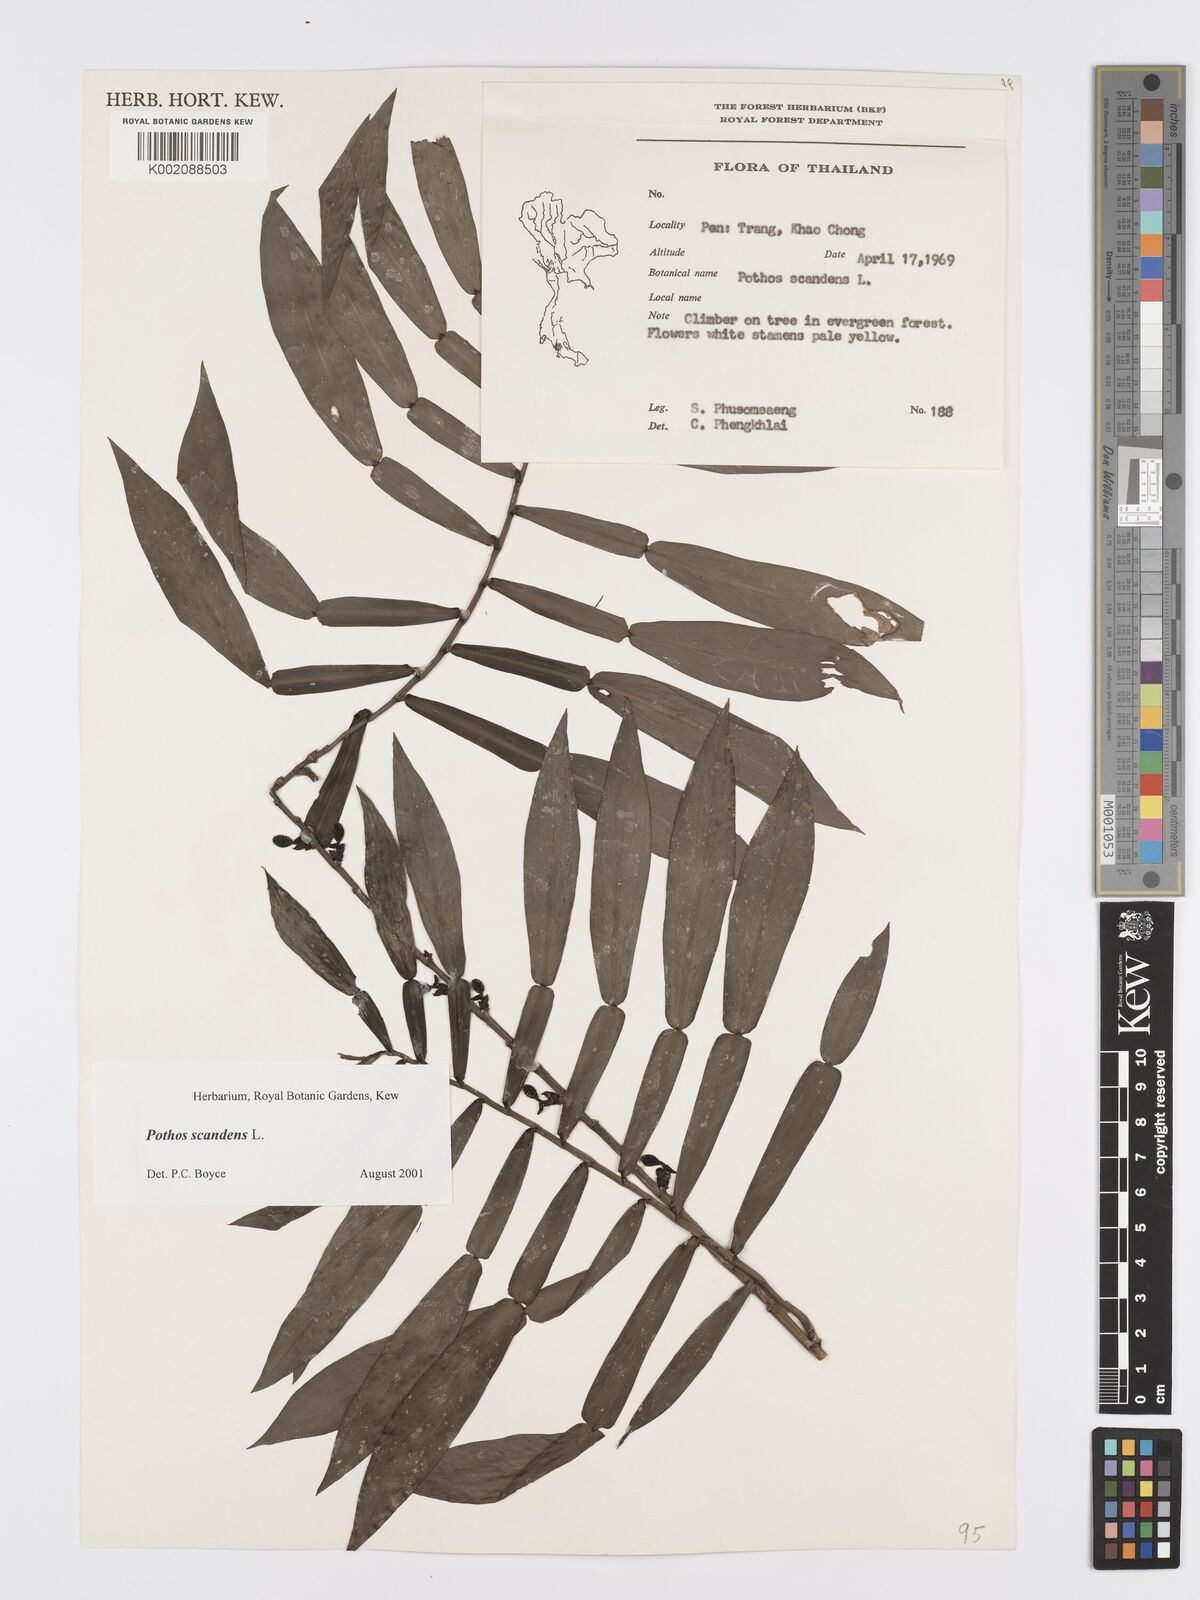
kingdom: Plantae
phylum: Tracheophyta
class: Liliopsida
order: Alismatales
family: Araceae
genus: Pothos
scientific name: Pothos scandens
